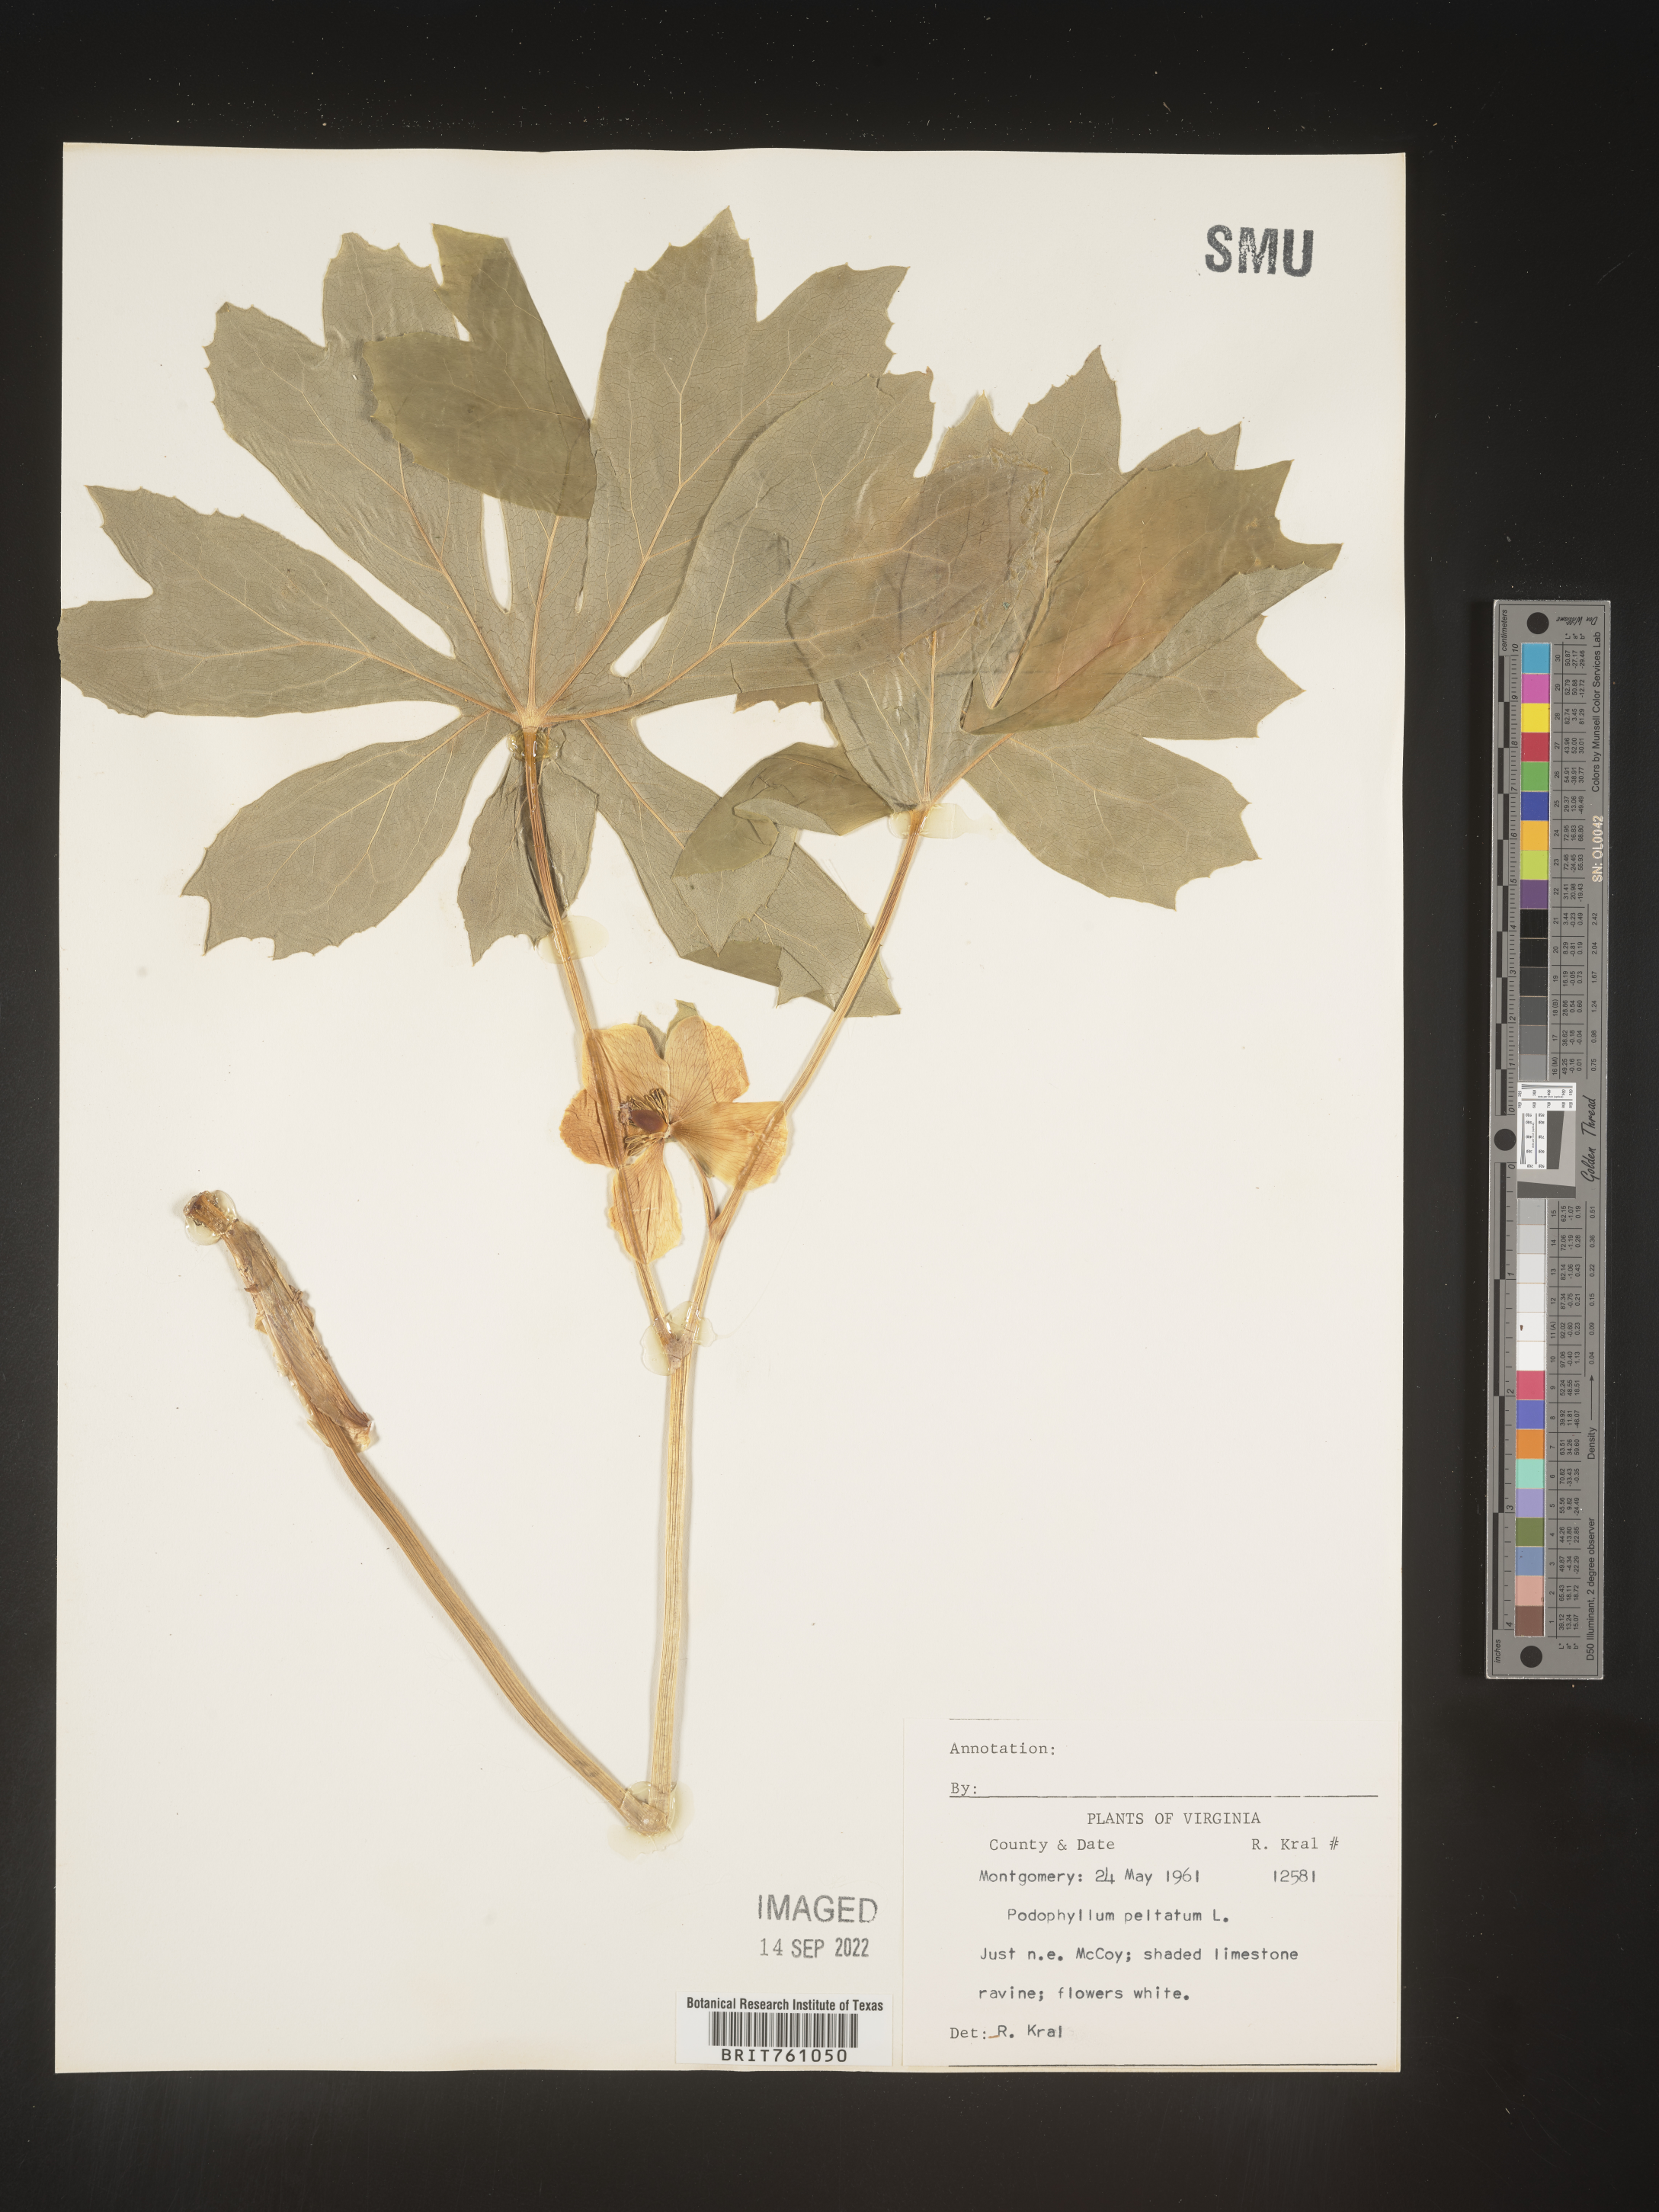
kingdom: Plantae
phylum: Tracheophyta
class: Magnoliopsida
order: Ranunculales
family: Berberidaceae
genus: Podophyllum
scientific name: Podophyllum peltatum
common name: Wild mandrake
